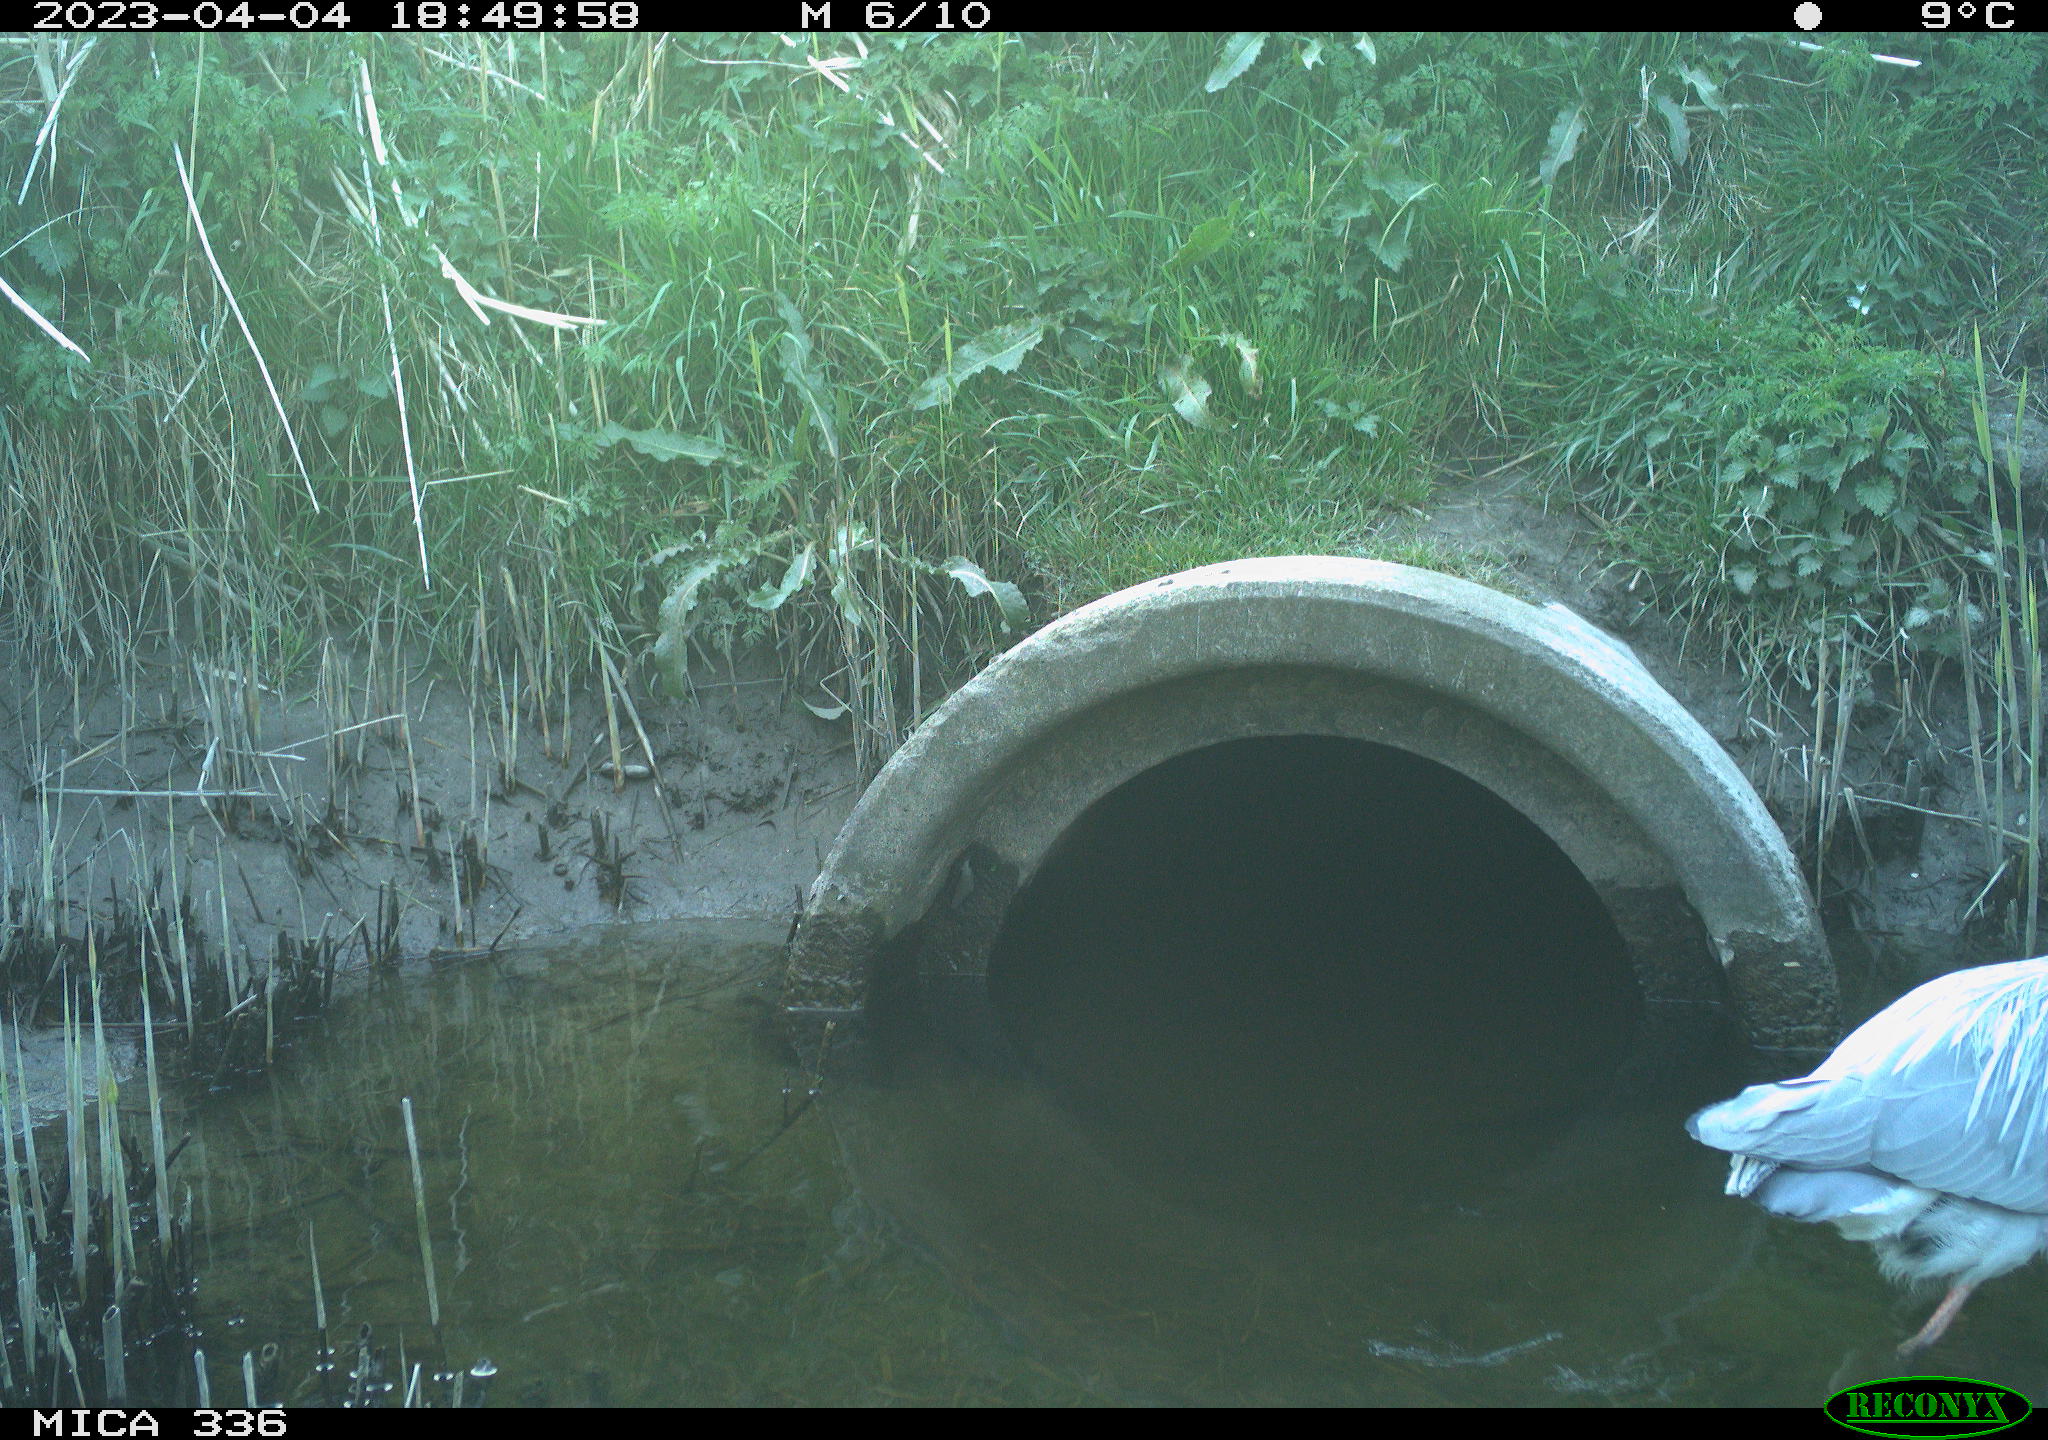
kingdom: Animalia
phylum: Chordata
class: Aves
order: Pelecaniformes
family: Ardeidae
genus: Ardea
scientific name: Ardea
